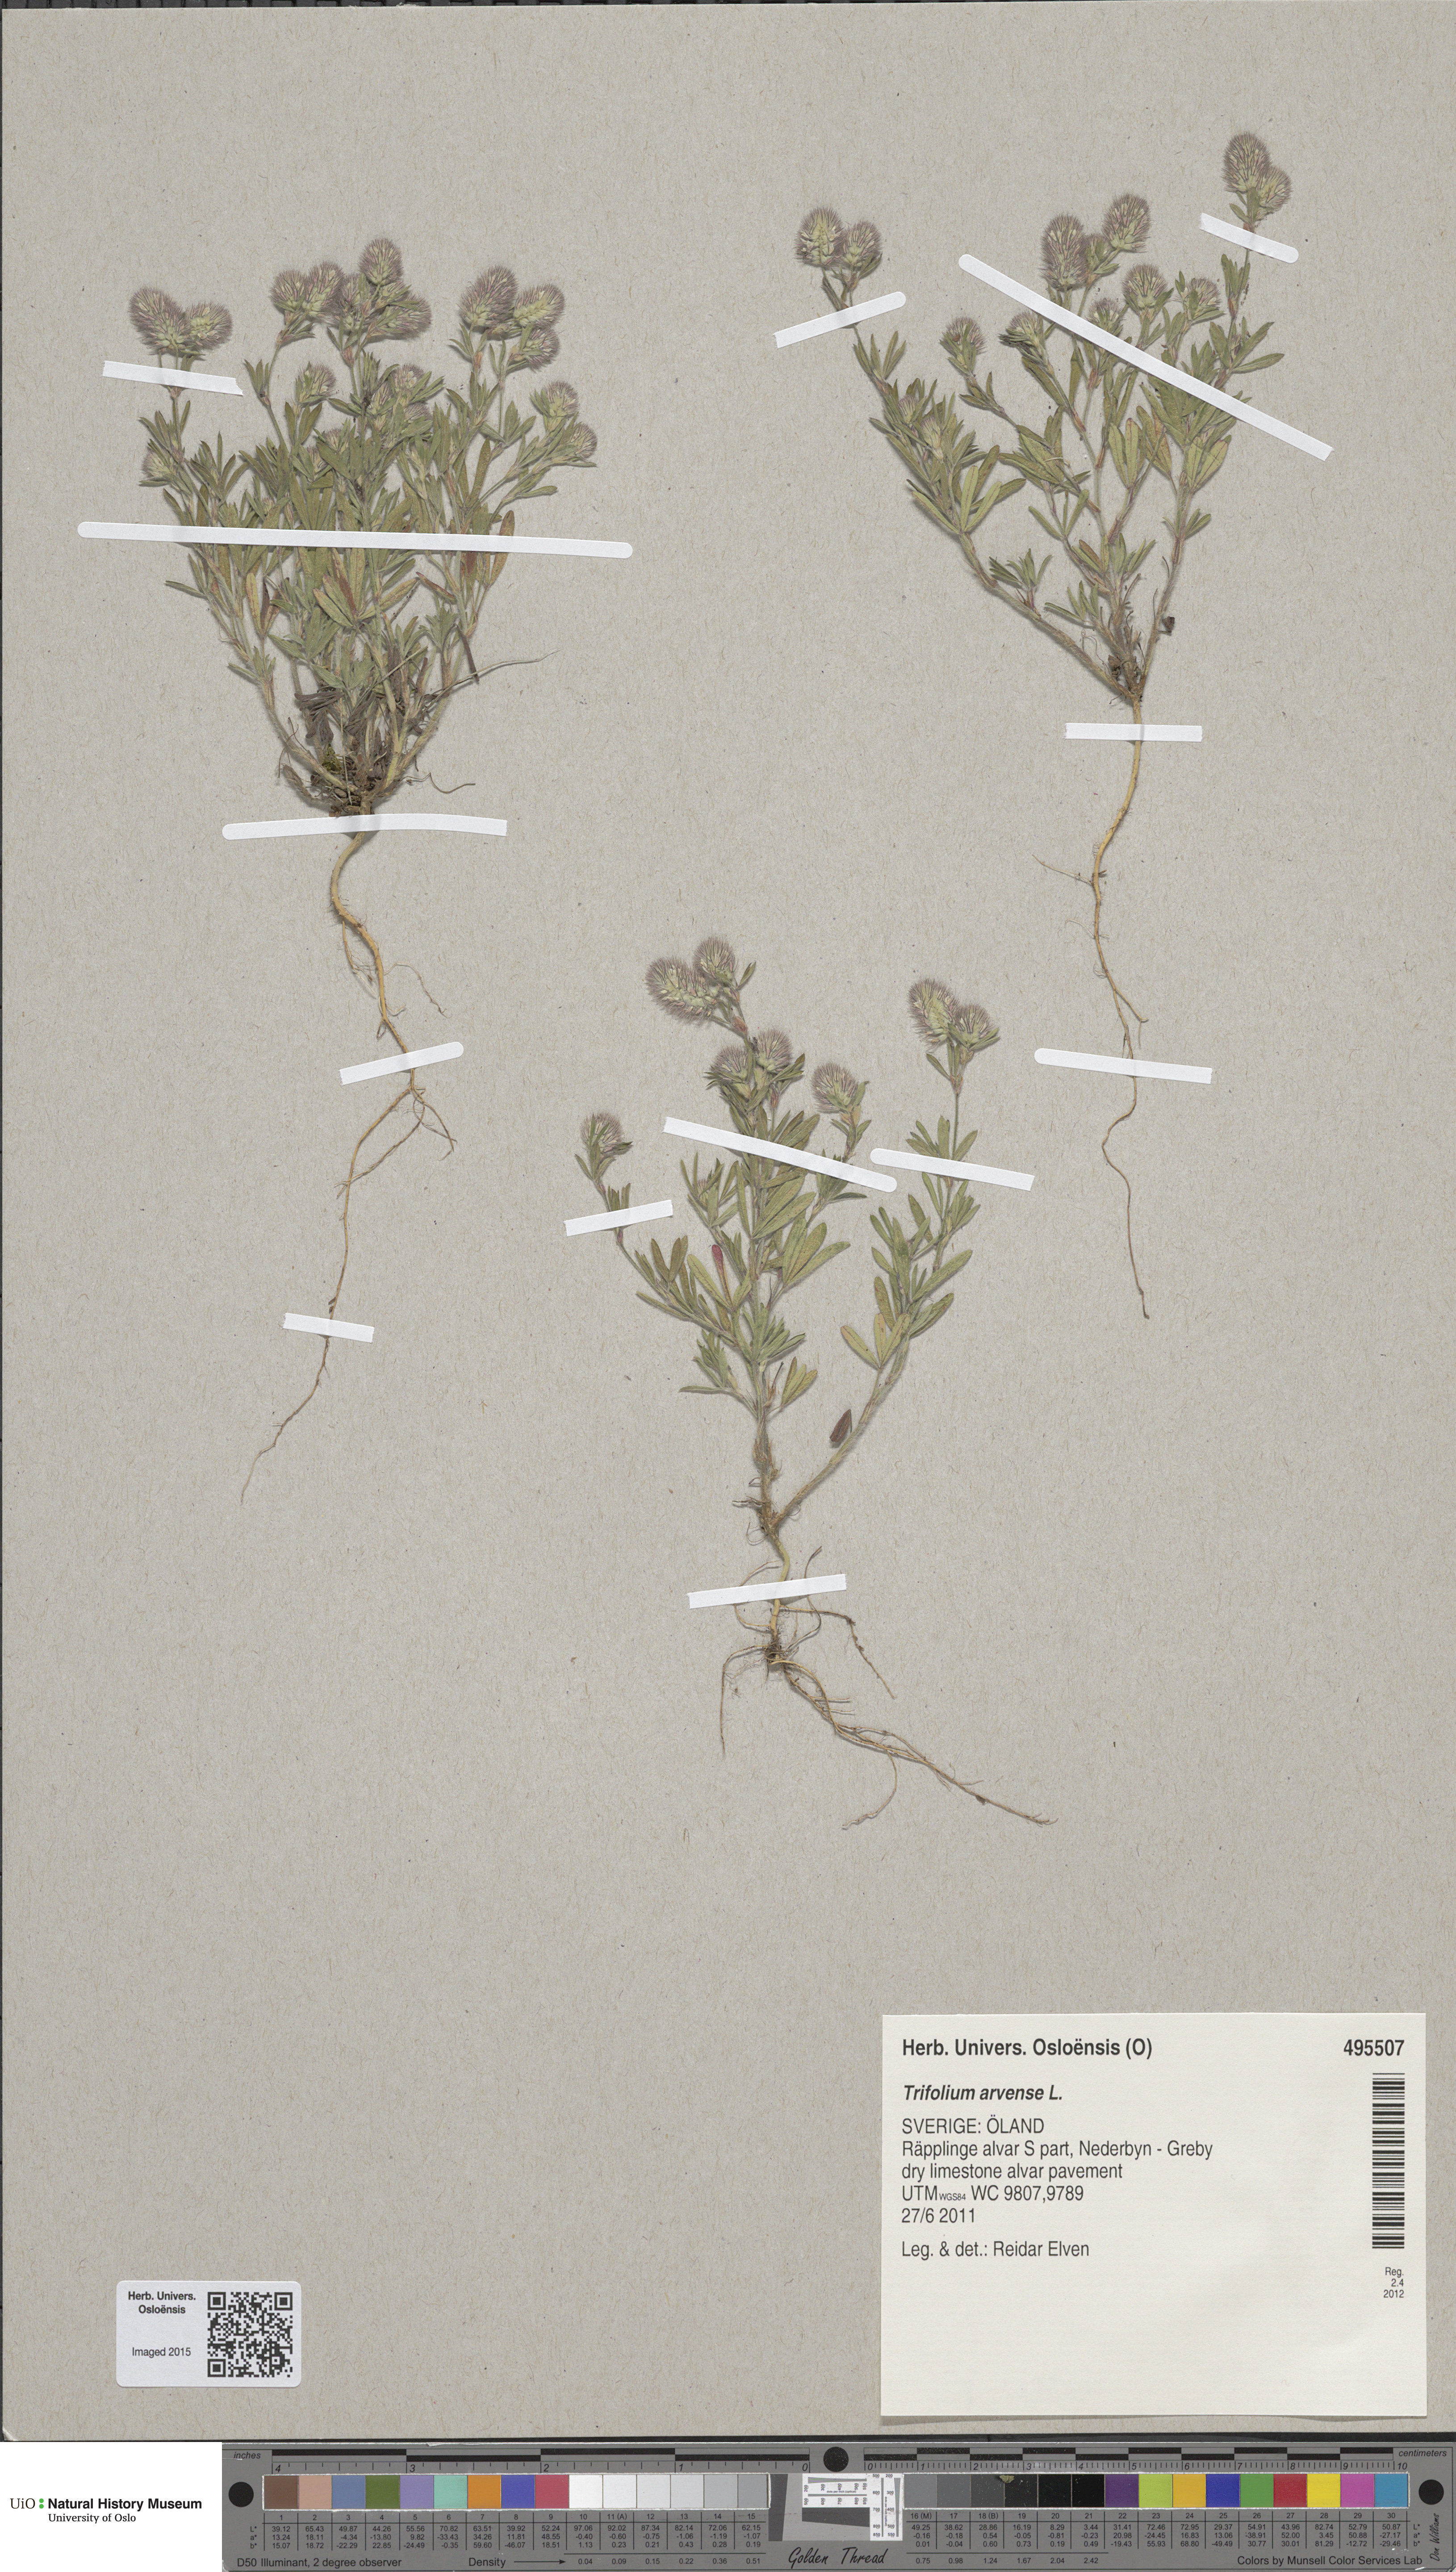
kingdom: Plantae
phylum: Tracheophyta
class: Magnoliopsida
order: Fabales
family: Fabaceae
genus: Trifolium
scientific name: Trifolium arvense
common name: Hare's-foot clover
